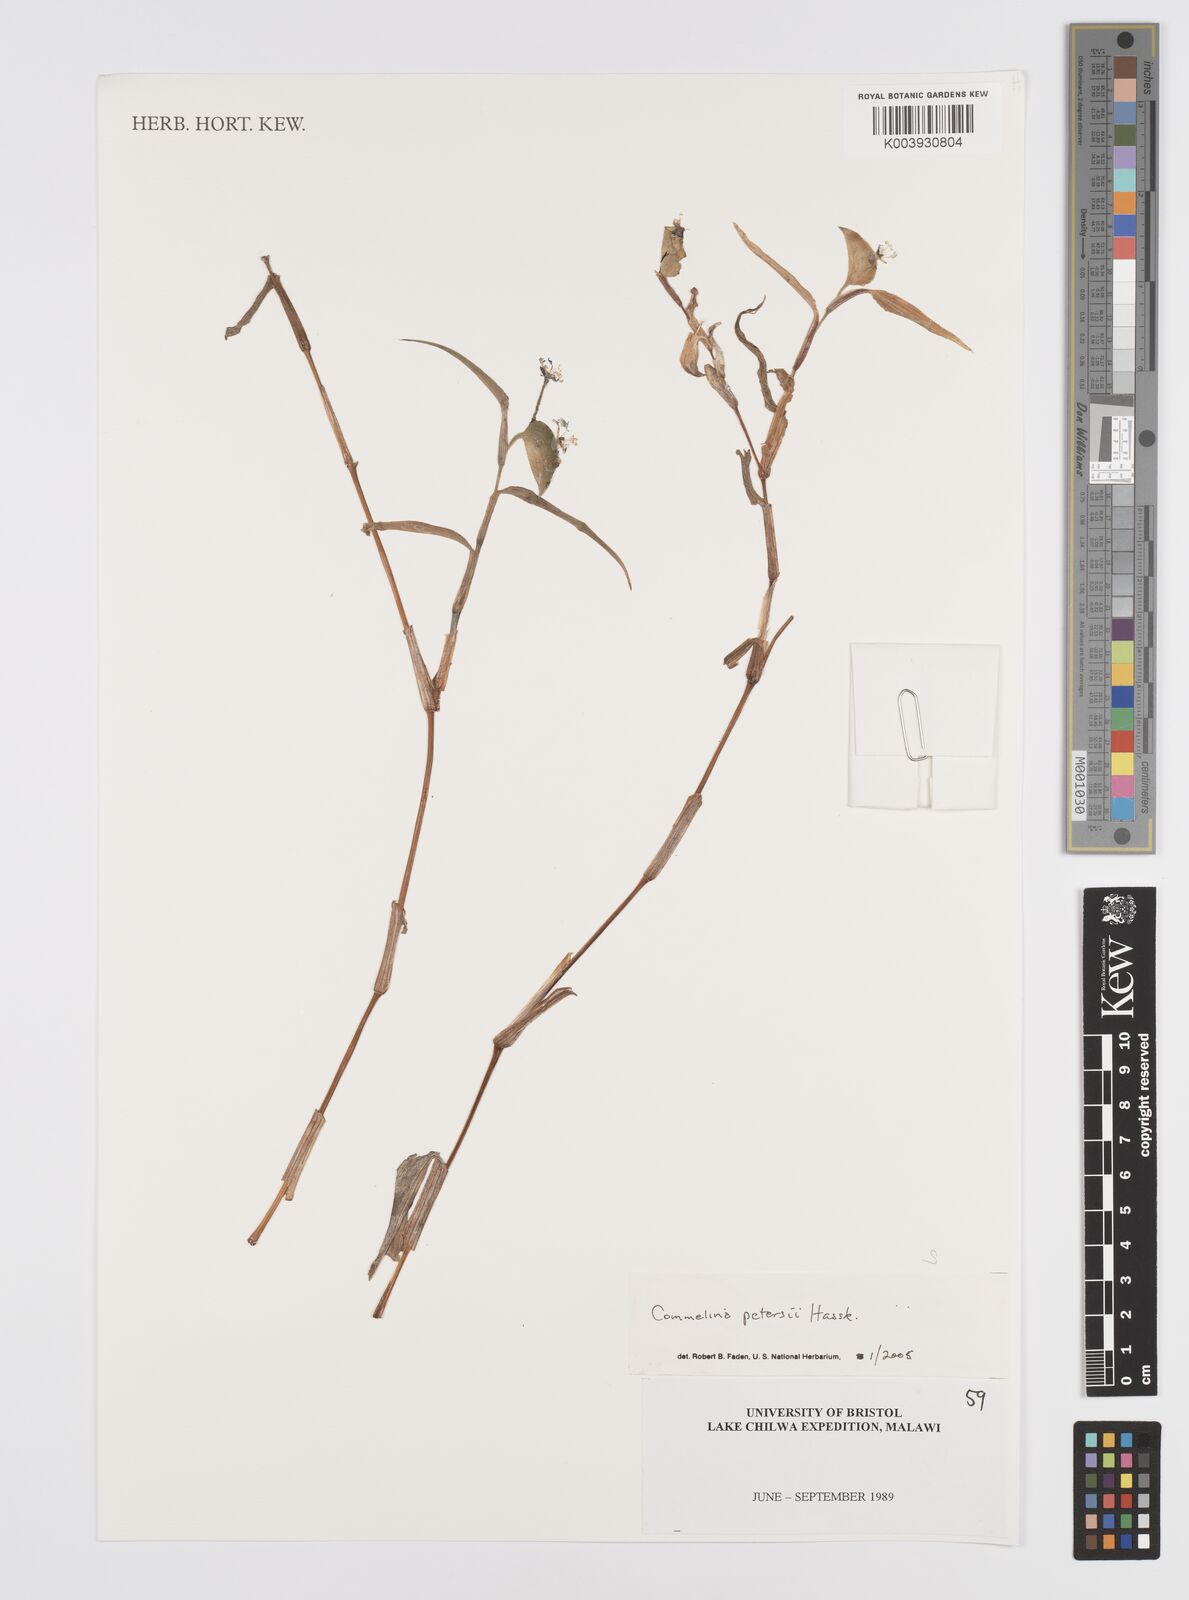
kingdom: Plantae
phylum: Tracheophyta
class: Liliopsida
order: Commelinales
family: Commelinaceae
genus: Commelina
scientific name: Commelina petersii
